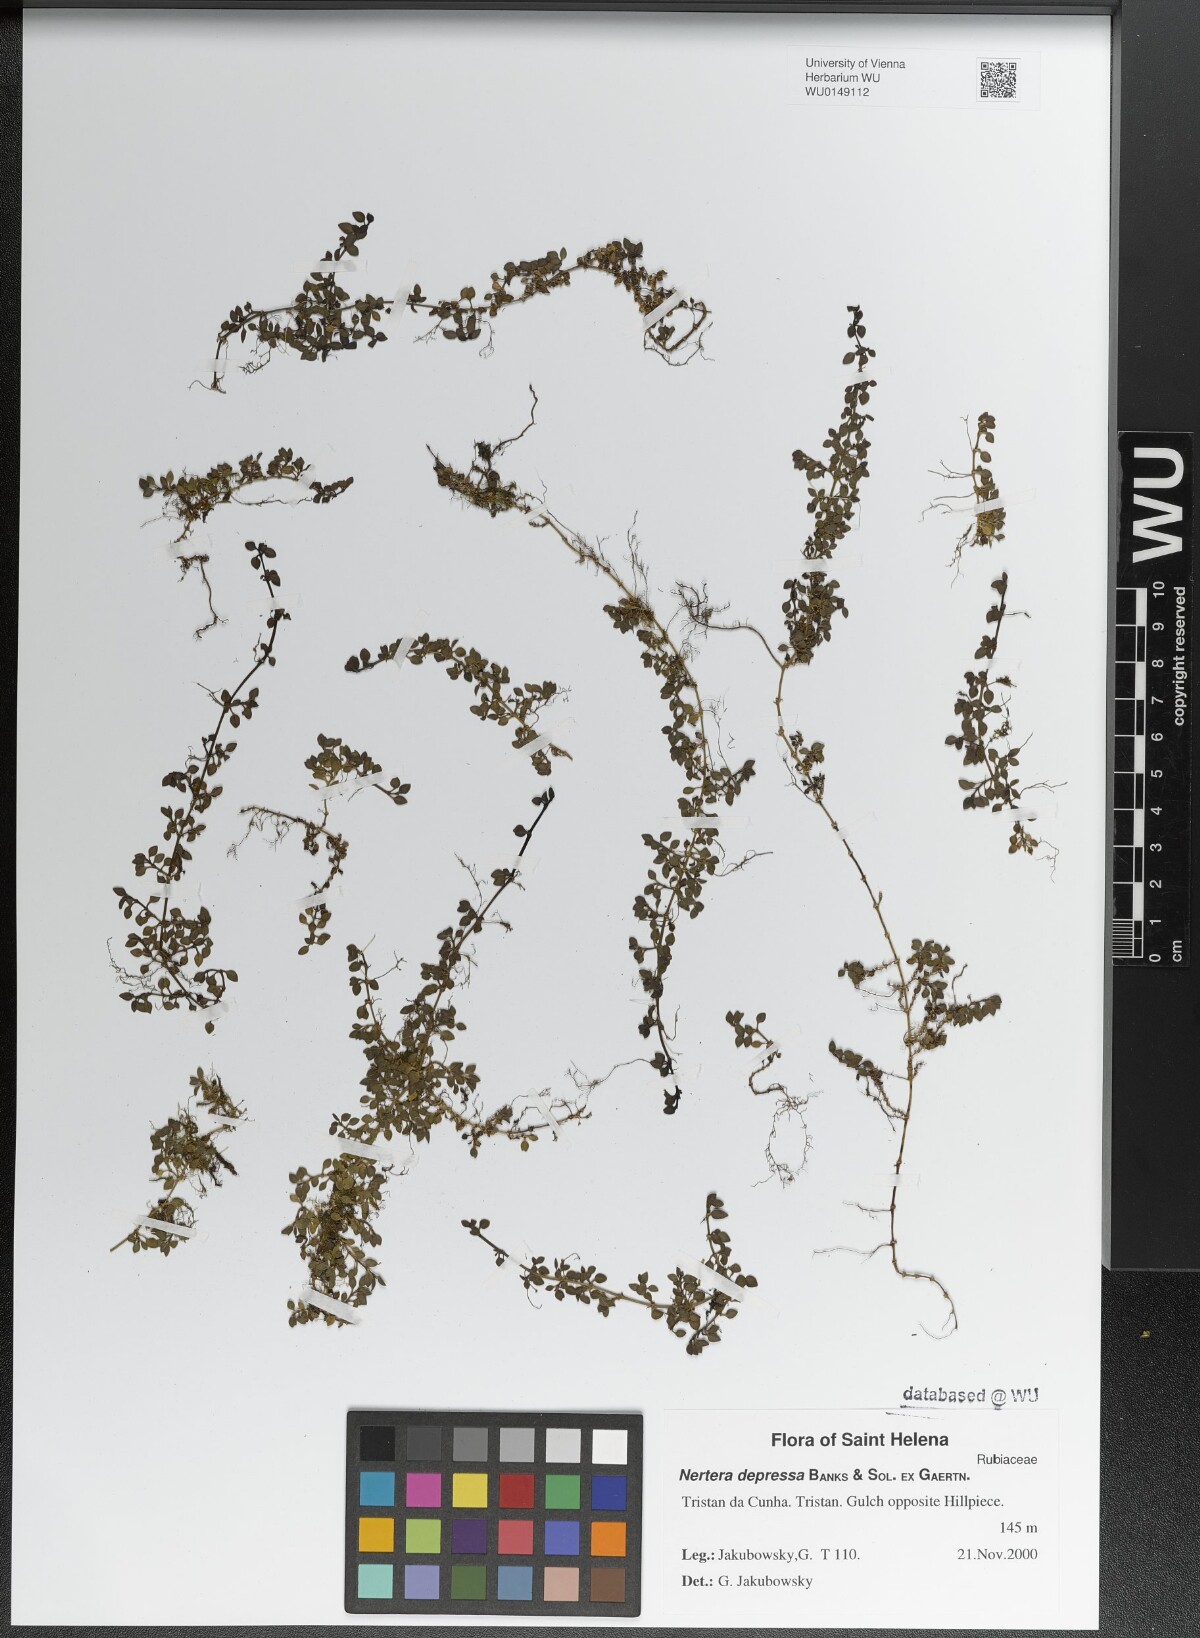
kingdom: Plantae
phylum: Tracheophyta
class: Magnoliopsida
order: Gentianales
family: Rubiaceae
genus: Nertera
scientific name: Nertera granadensis
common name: Beadplant
